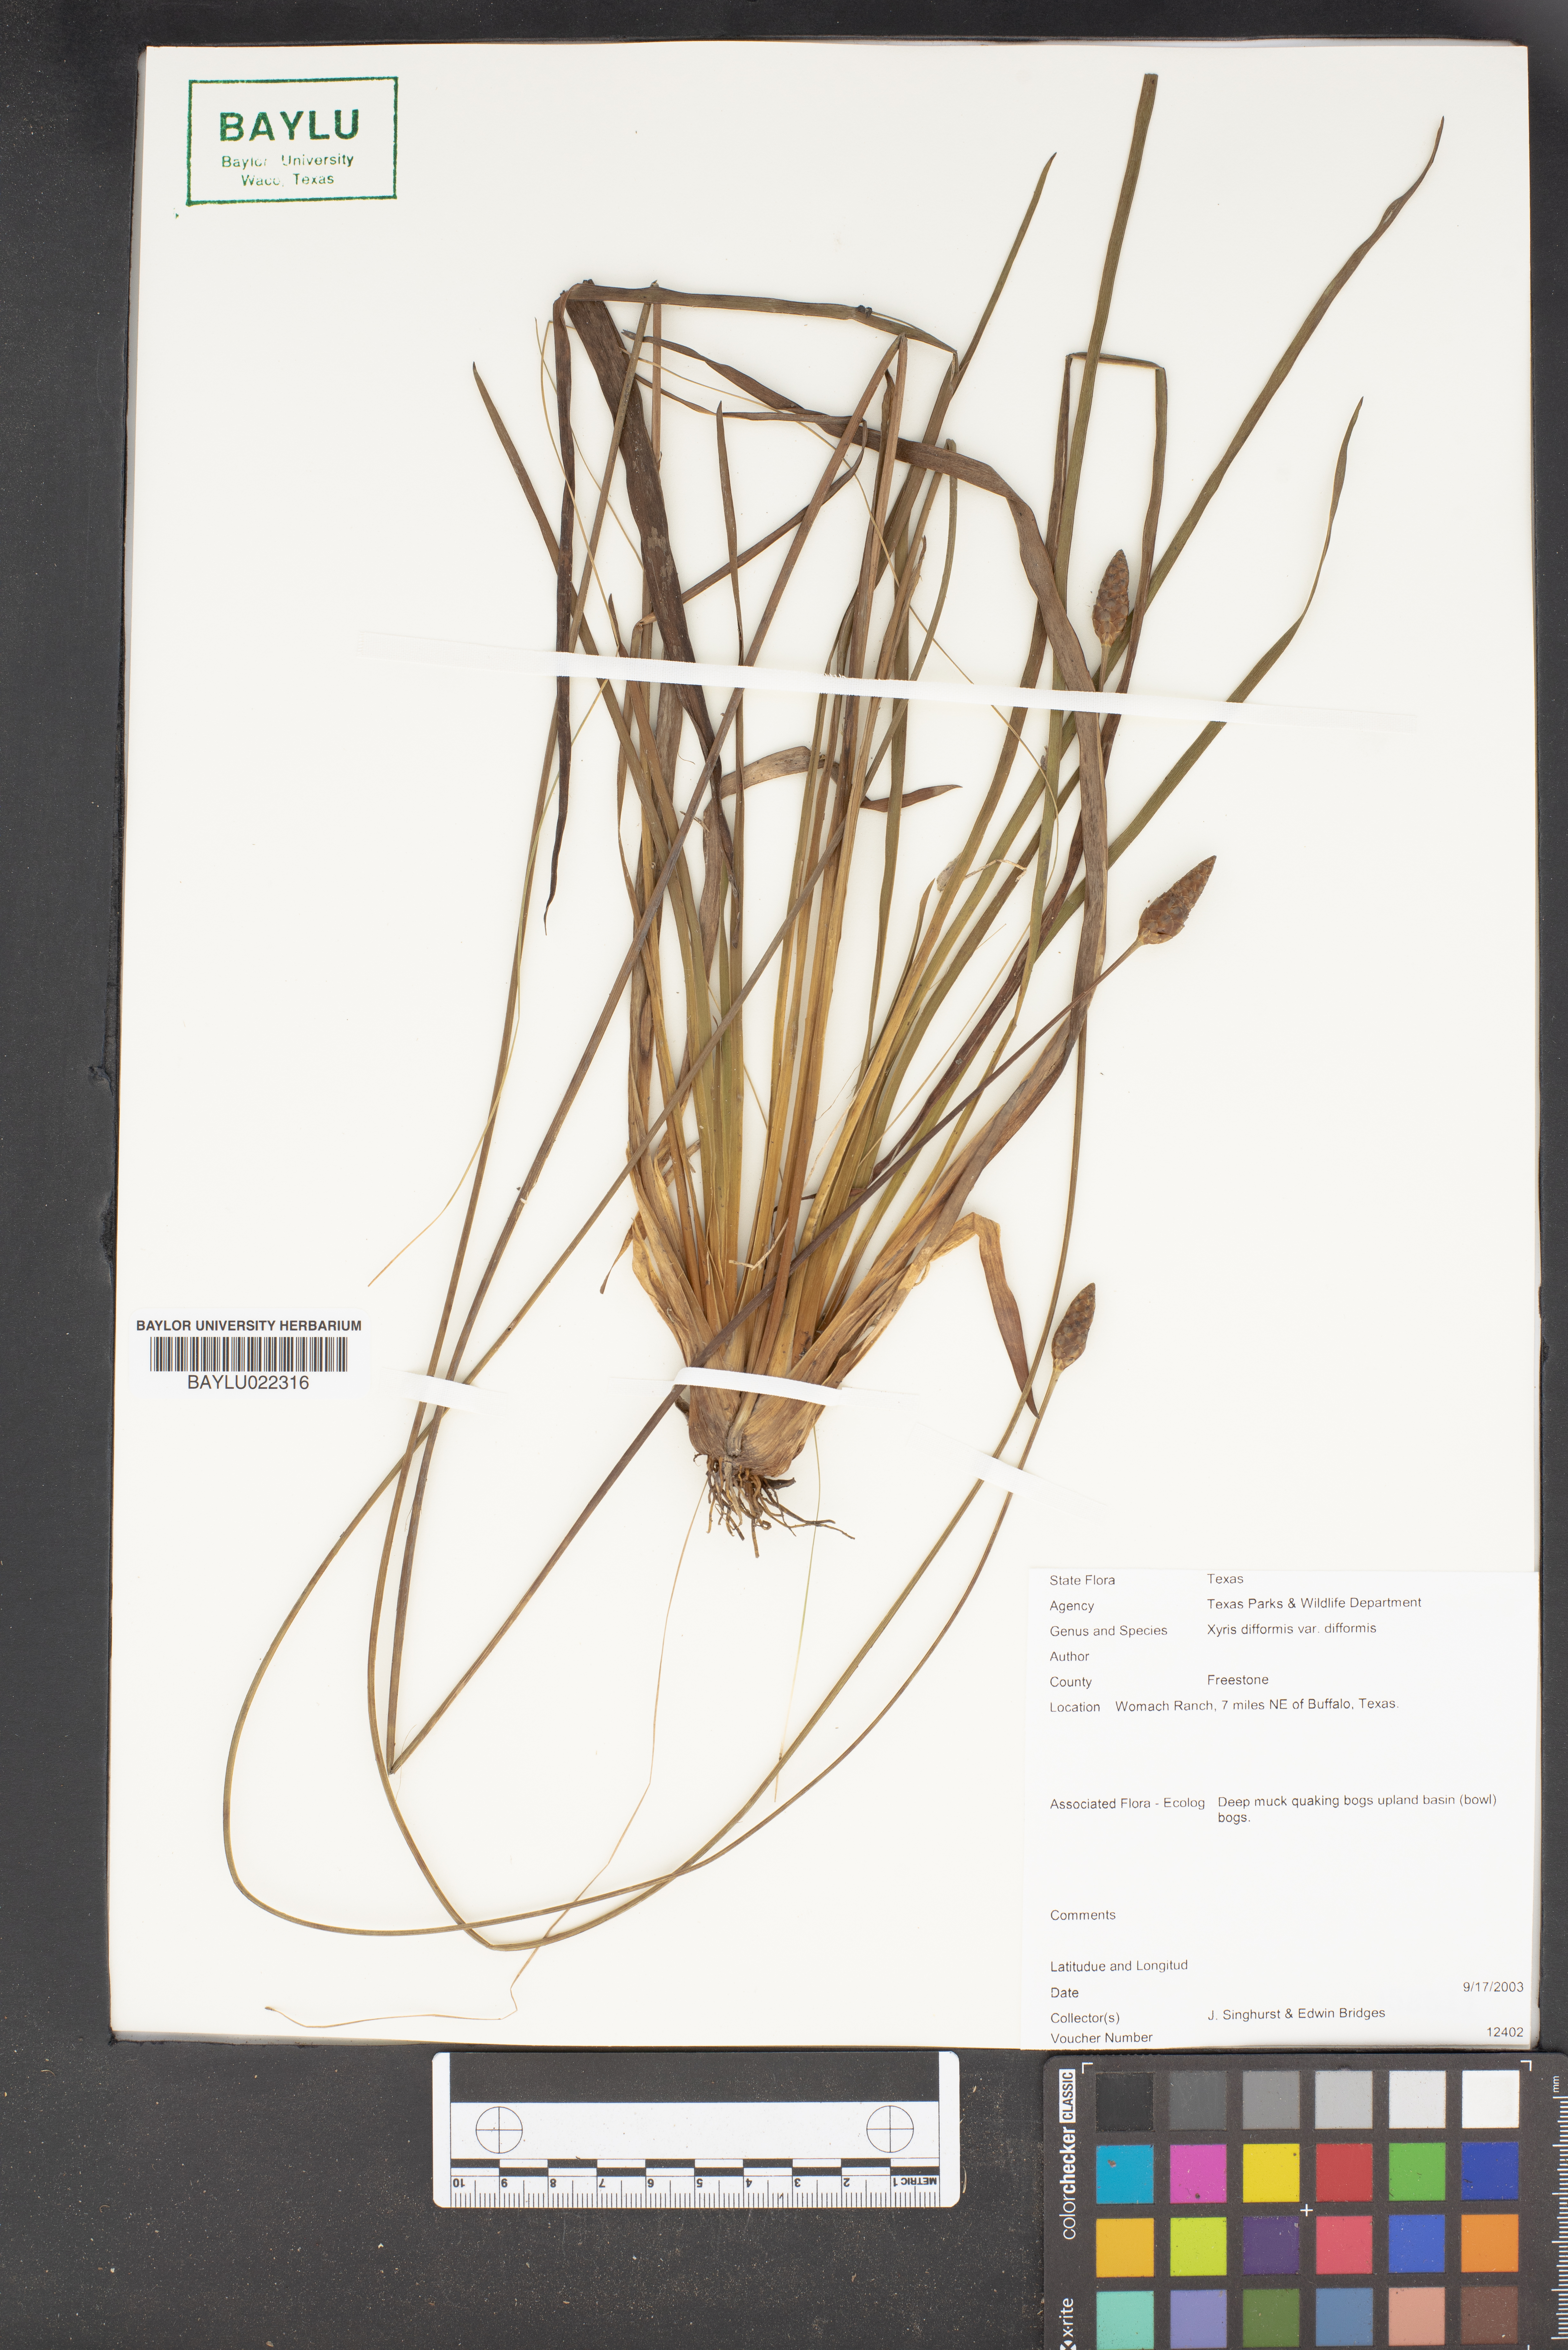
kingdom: Plantae
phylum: Tracheophyta
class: Liliopsida
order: Poales
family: Xyridaceae
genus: Xyris
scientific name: Xyris difformis
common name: Bog yellow-eyed-grass
